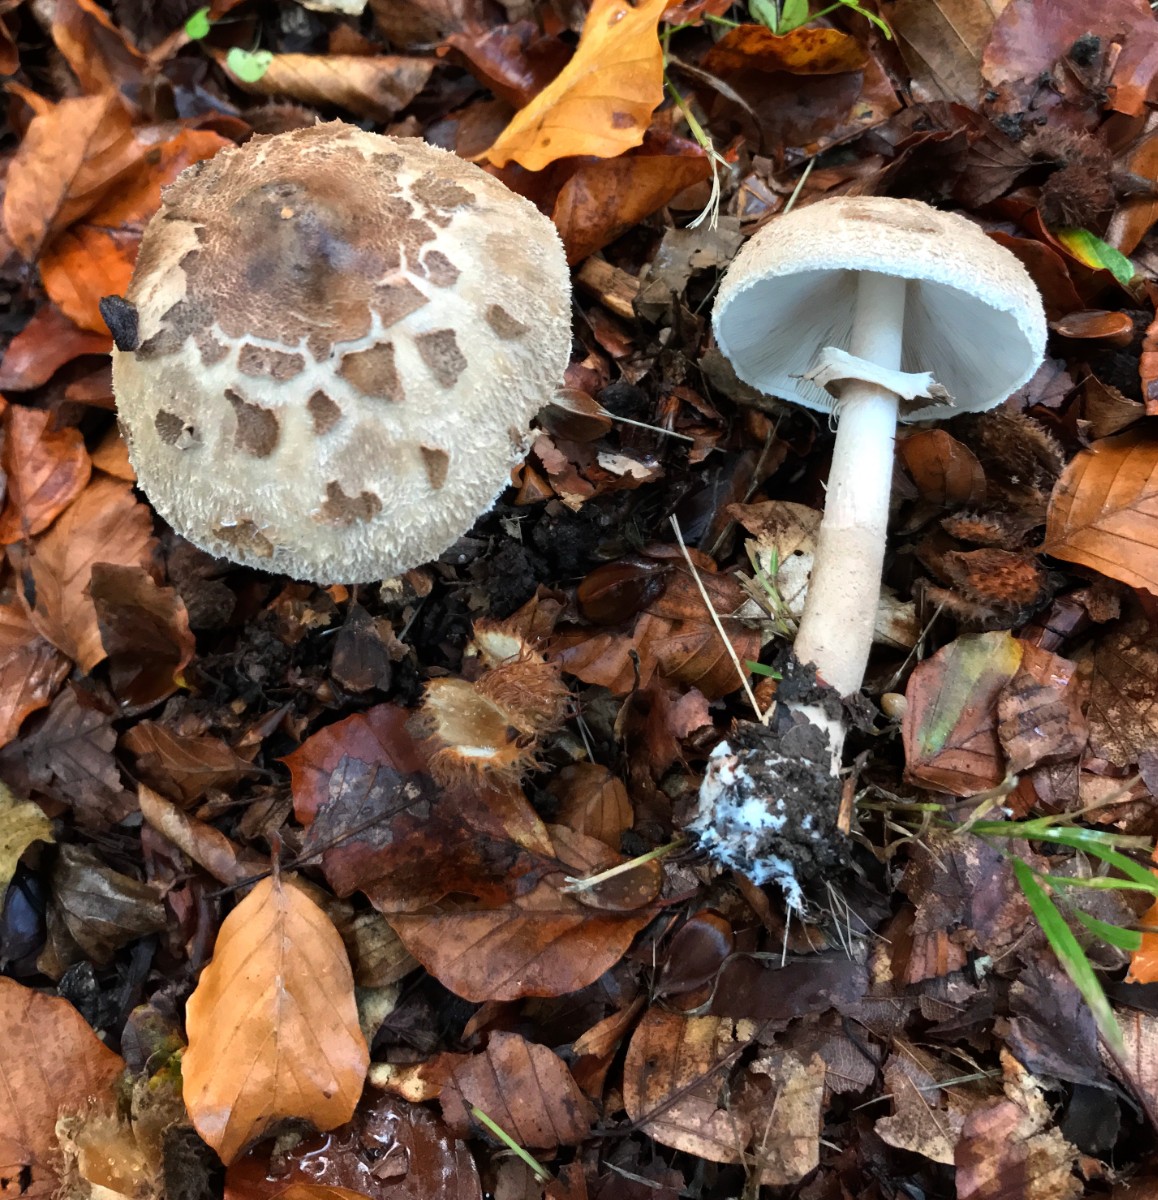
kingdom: Fungi
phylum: Basidiomycota
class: Agaricomycetes
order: Agaricales
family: Agaricaceae
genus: Macrolepiota
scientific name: Macrolepiota mastoidea
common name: puklet kæmpeparasolhat
